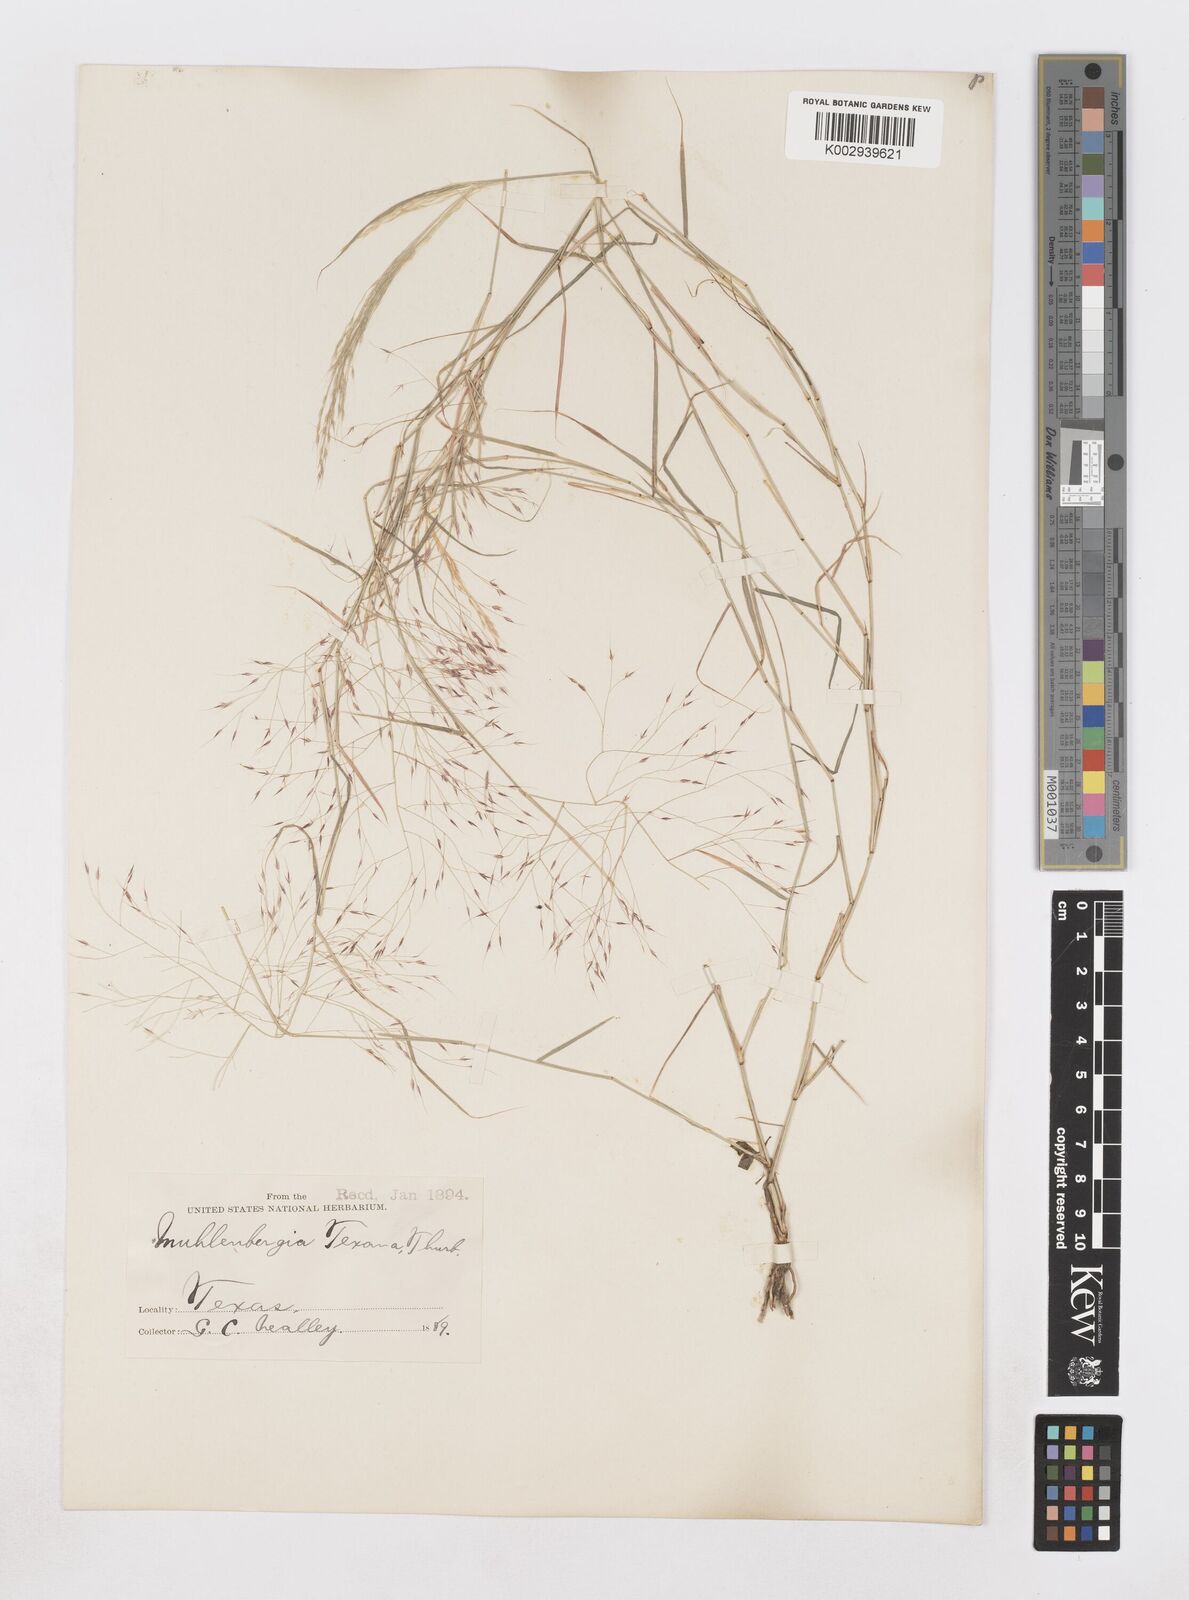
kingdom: Plantae
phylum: Tracheophyta
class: Liliopsida
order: Poales
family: Poaceae
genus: Muhlenbergia
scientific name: Muhlenbergia porteri
